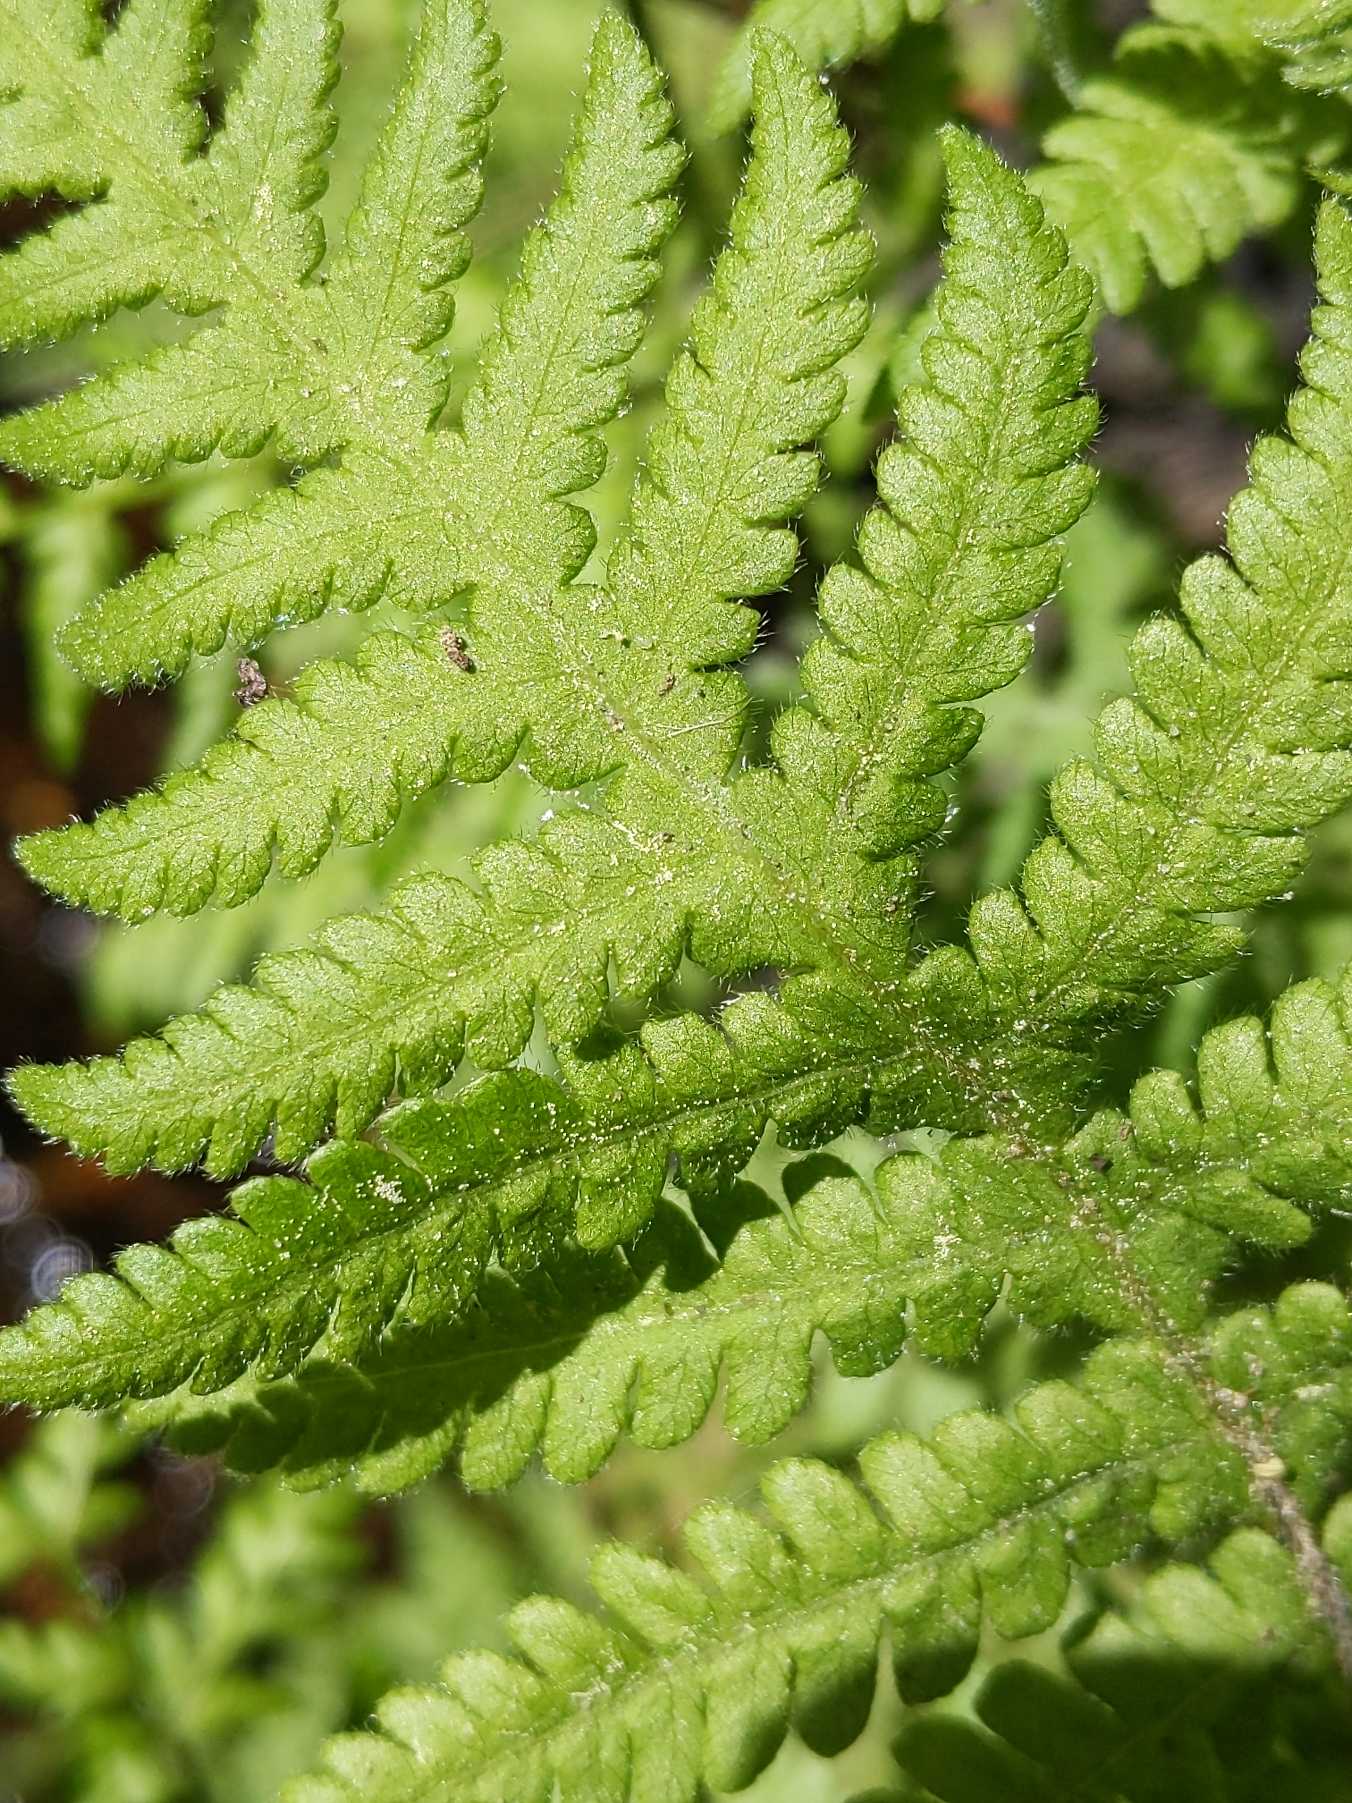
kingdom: Plantae
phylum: Tracheophyta
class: Polypodiopsida
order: Polypodiales
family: Thelypteridaceae
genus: Phegopteris
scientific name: Phegopteris connectilis
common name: Dunet egebregne
